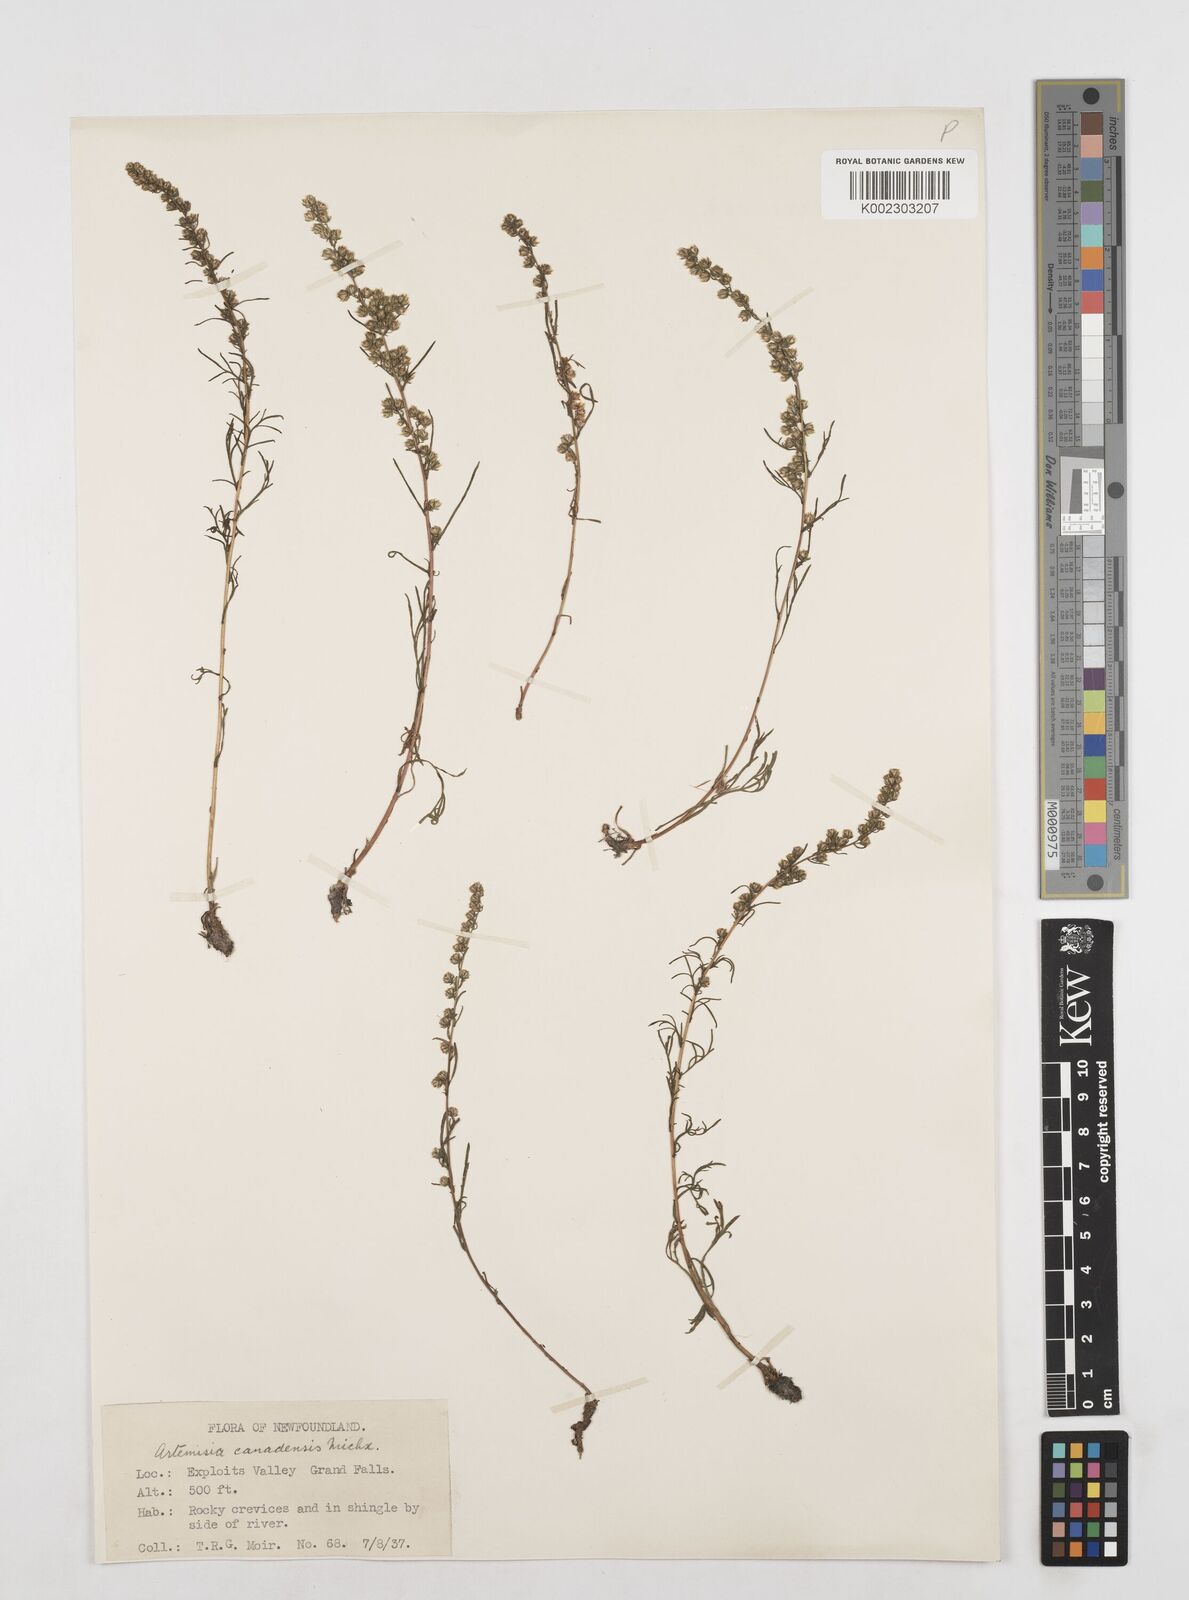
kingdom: Plantae
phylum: Tracheophyta
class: Magnoliopsida
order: Asterales
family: Asteraceae
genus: Artemisia
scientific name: Artemisia campestris
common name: Field wormwood
